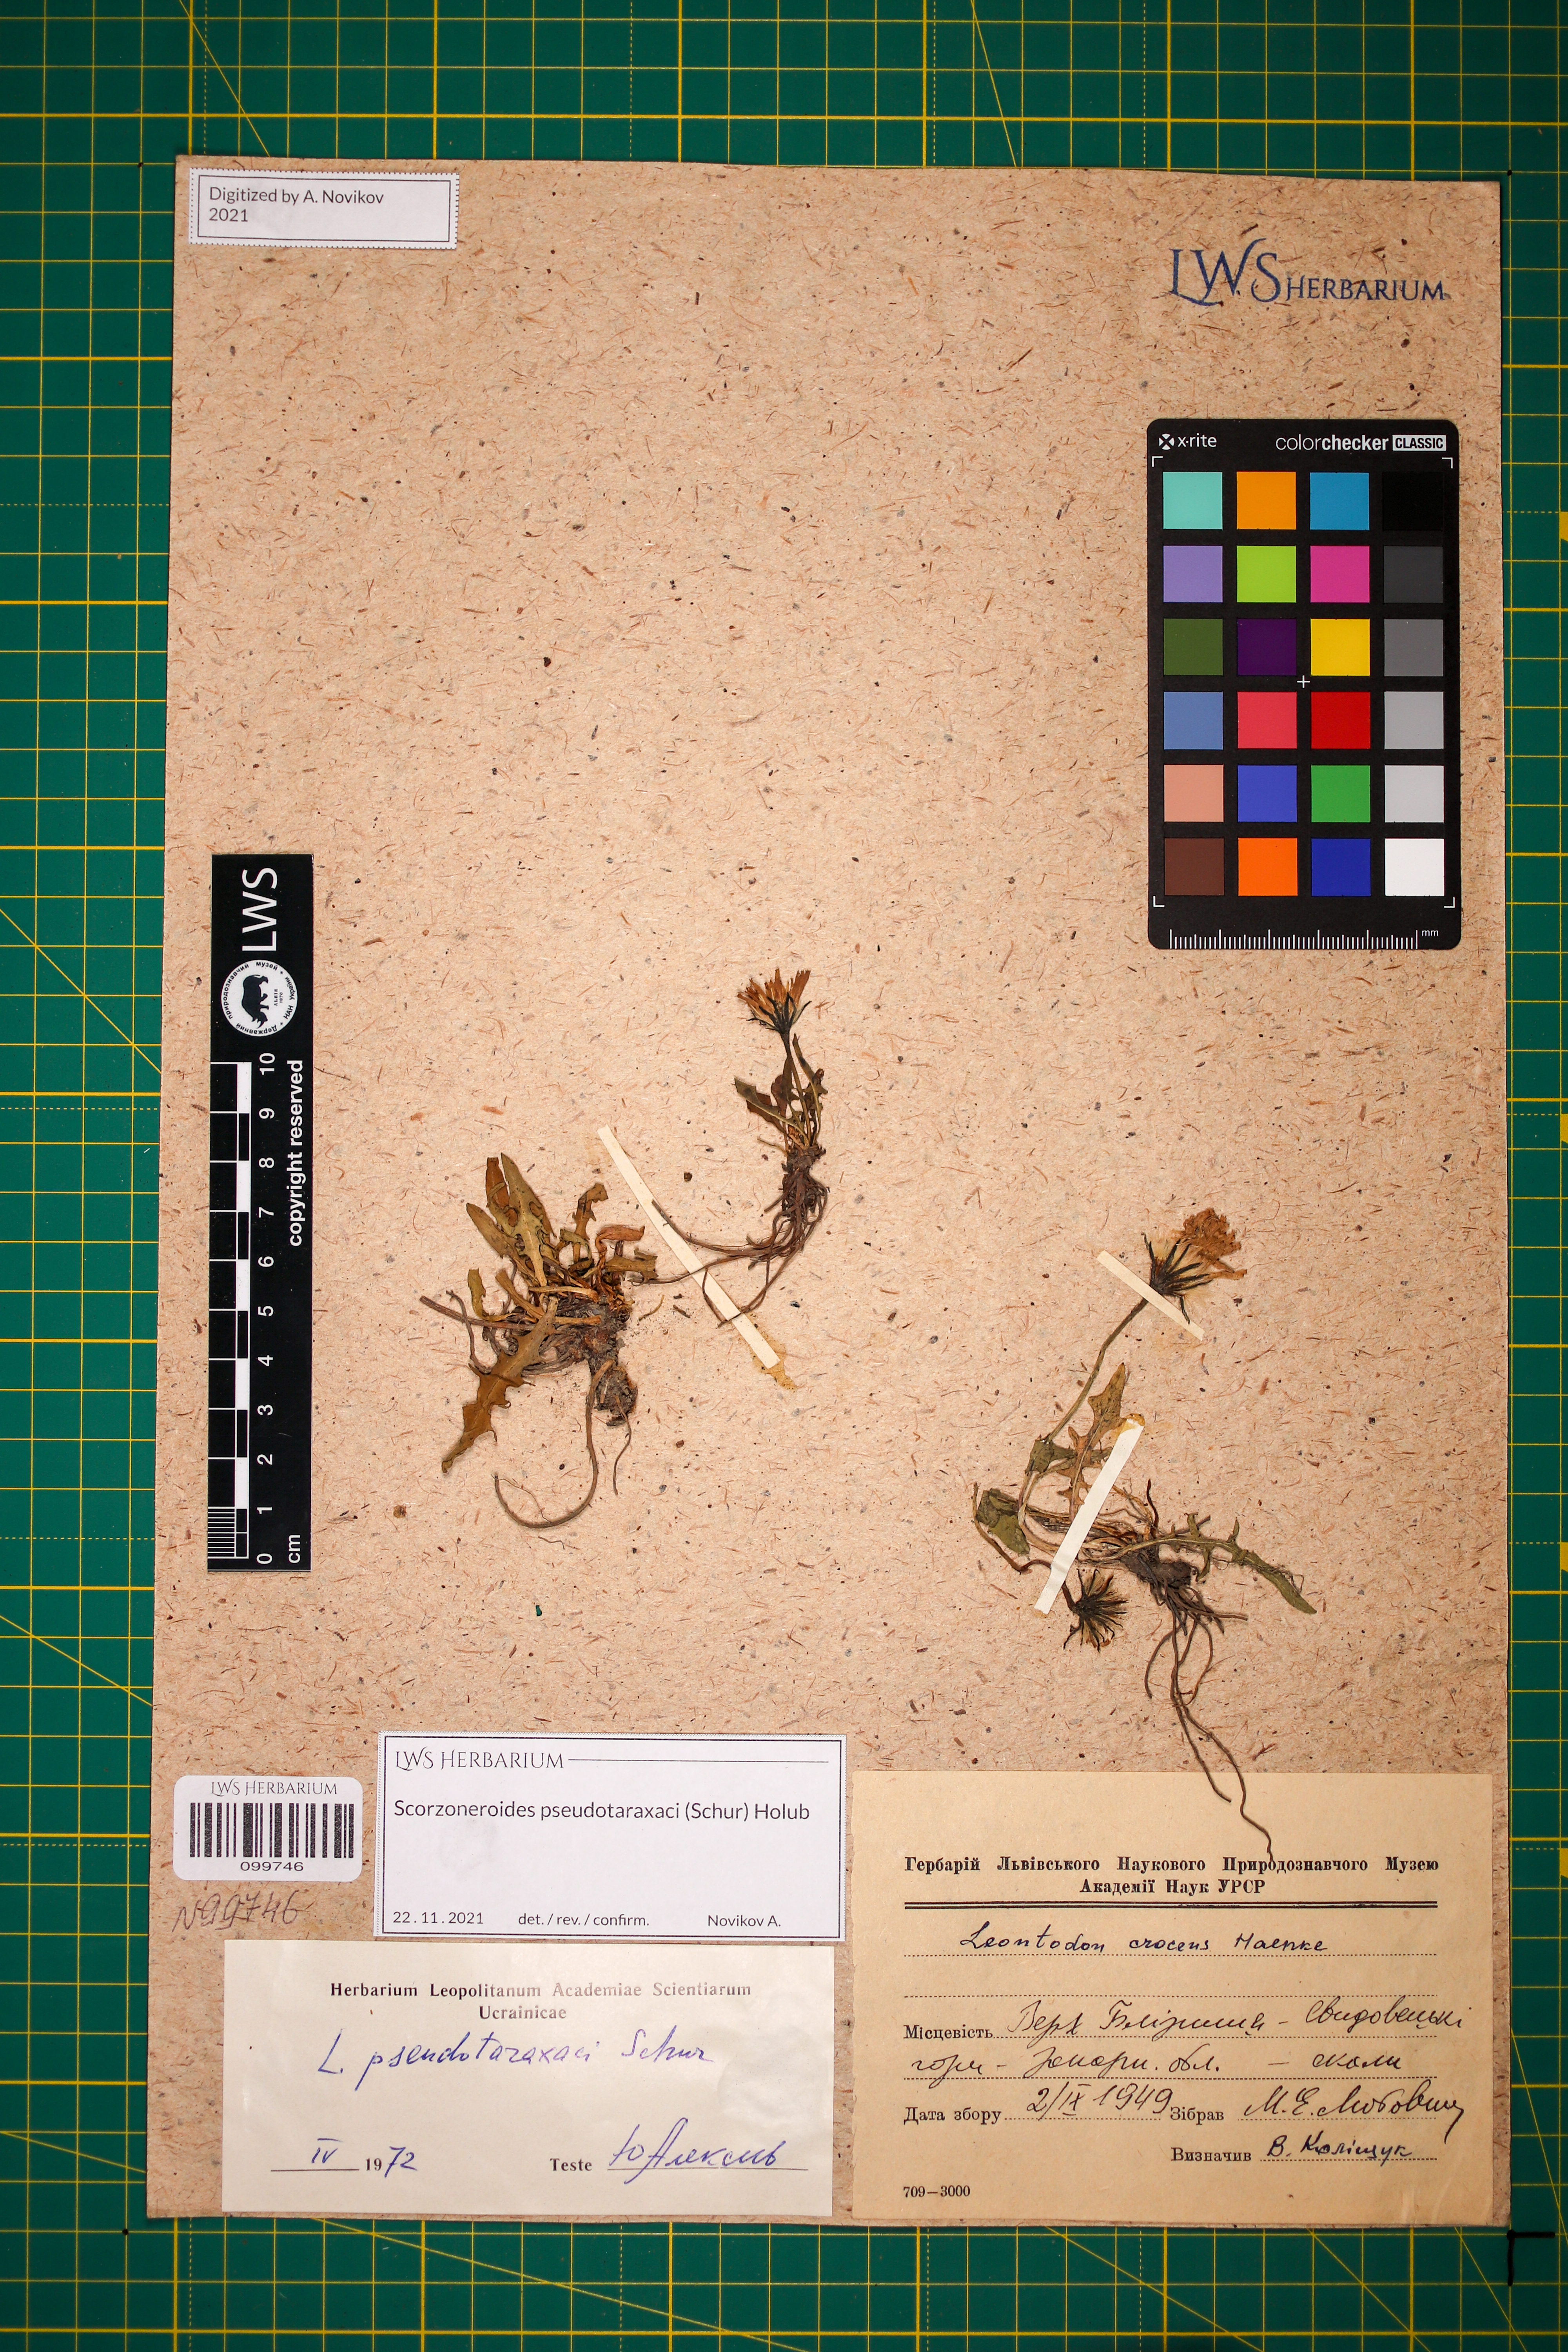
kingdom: Plantae
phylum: Tracheophyta
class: Magnoliopsida
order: Asterales
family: Asteraceae
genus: Scorzoneroides
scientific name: Scorzoneroides pseudotaraxaci
